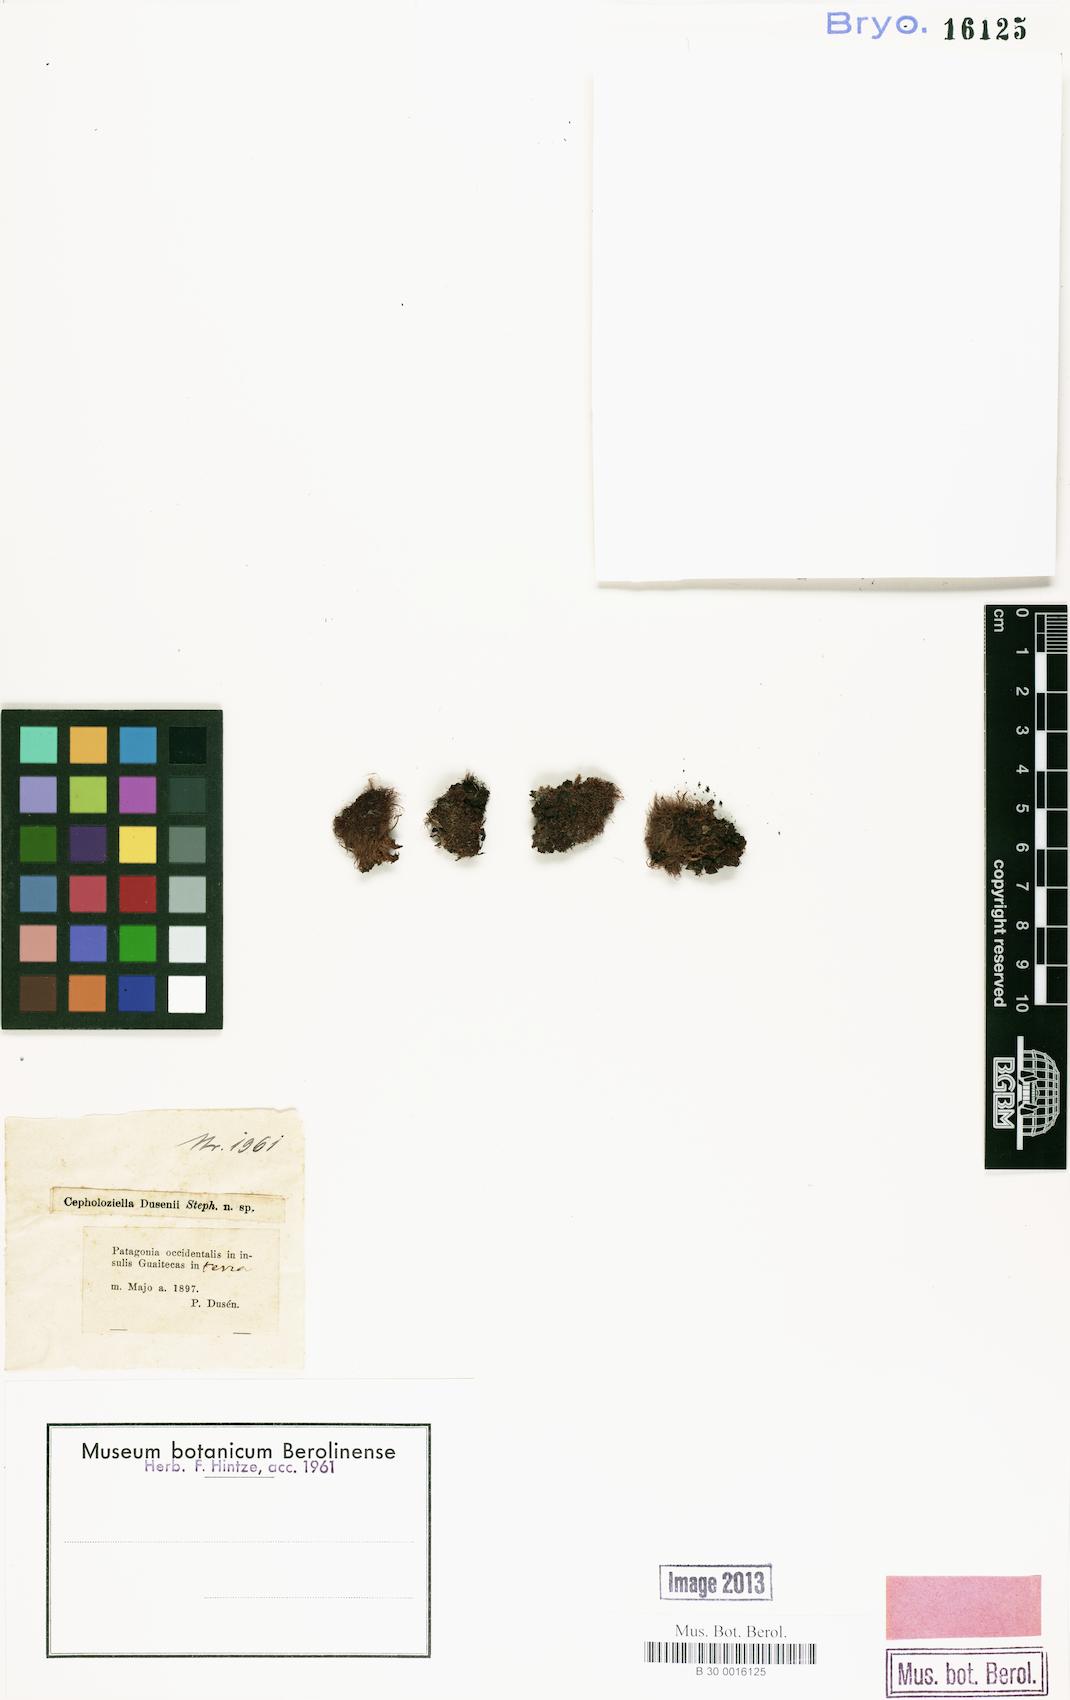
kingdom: Plantae
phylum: Marchantiophyta
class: Jungermanniopsida
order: Jungermanniales
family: Cephaloziellaceae
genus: Cephaloziella
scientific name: Cephaloziella dusenii
